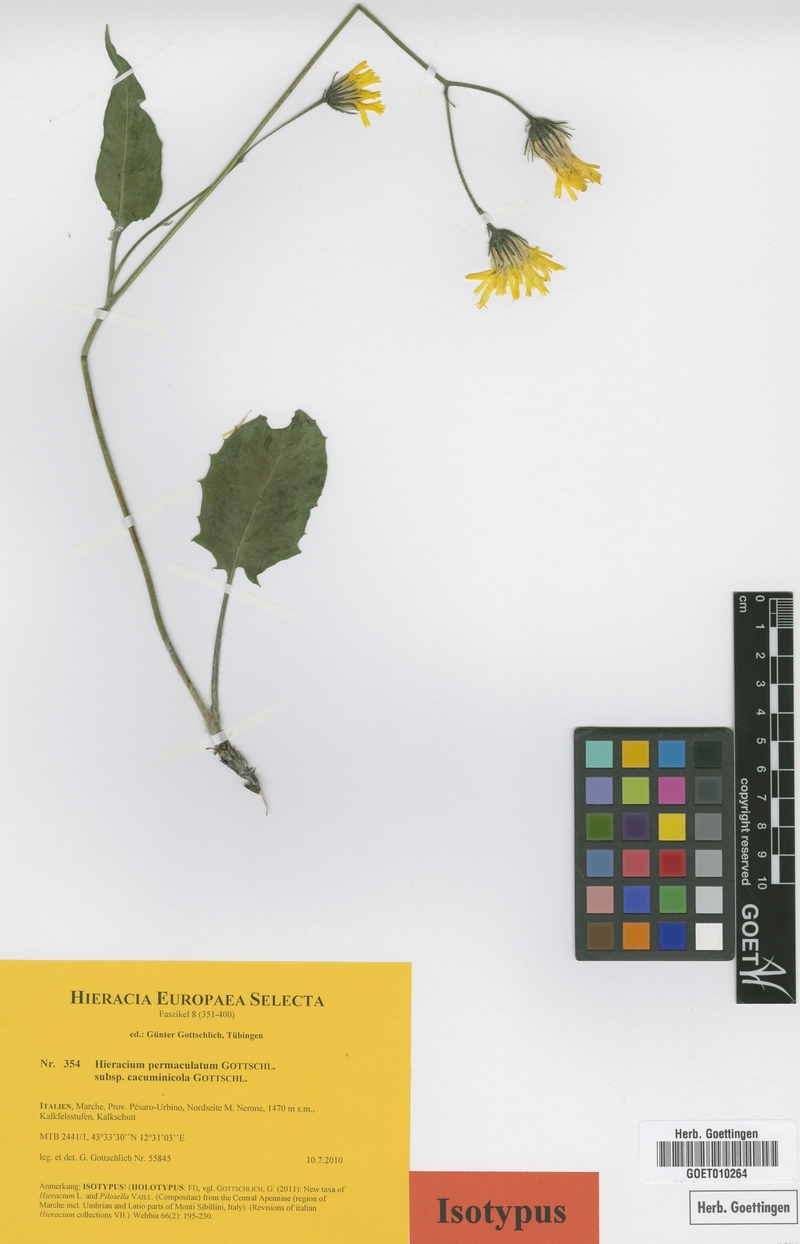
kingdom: Plantae
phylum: Tracheophyta
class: Magnoliopsida
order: Asterales
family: Asteraceae
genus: Hieracium
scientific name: Hieracium permaculatum
